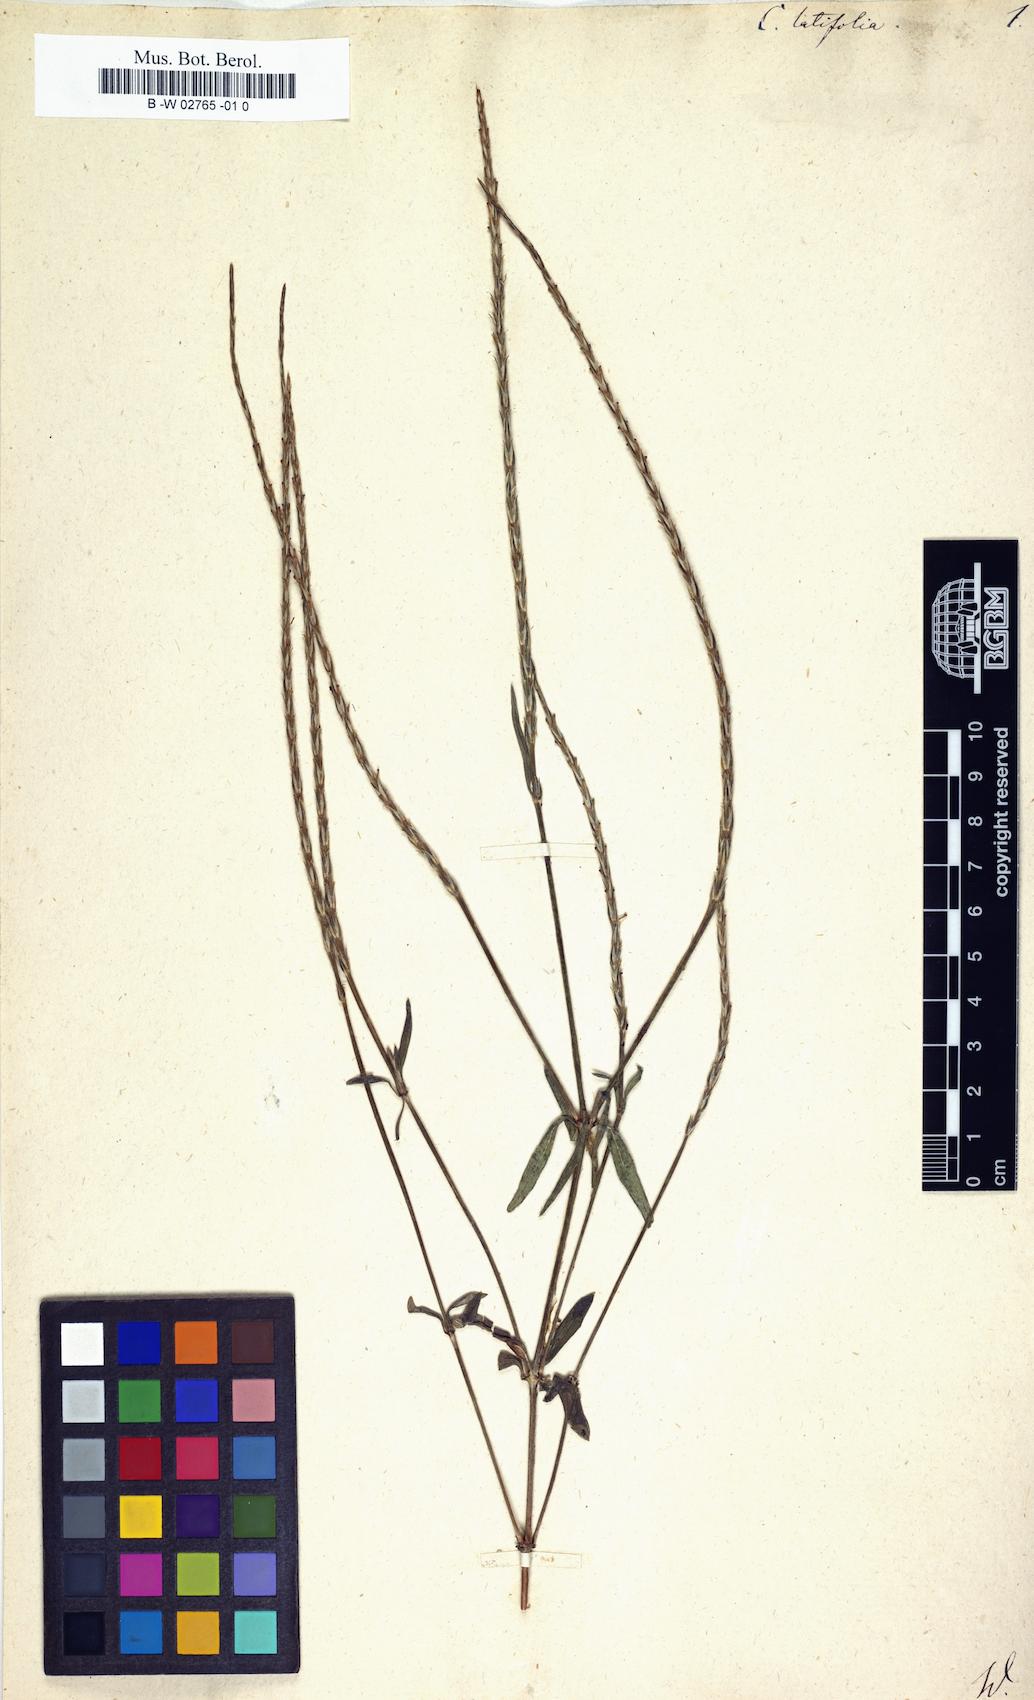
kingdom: Plantae
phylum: Tracheophyta
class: Magnoliopsida
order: Gentianales
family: Rubiaceae
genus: Crucianella
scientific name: Crucianella latifolia
